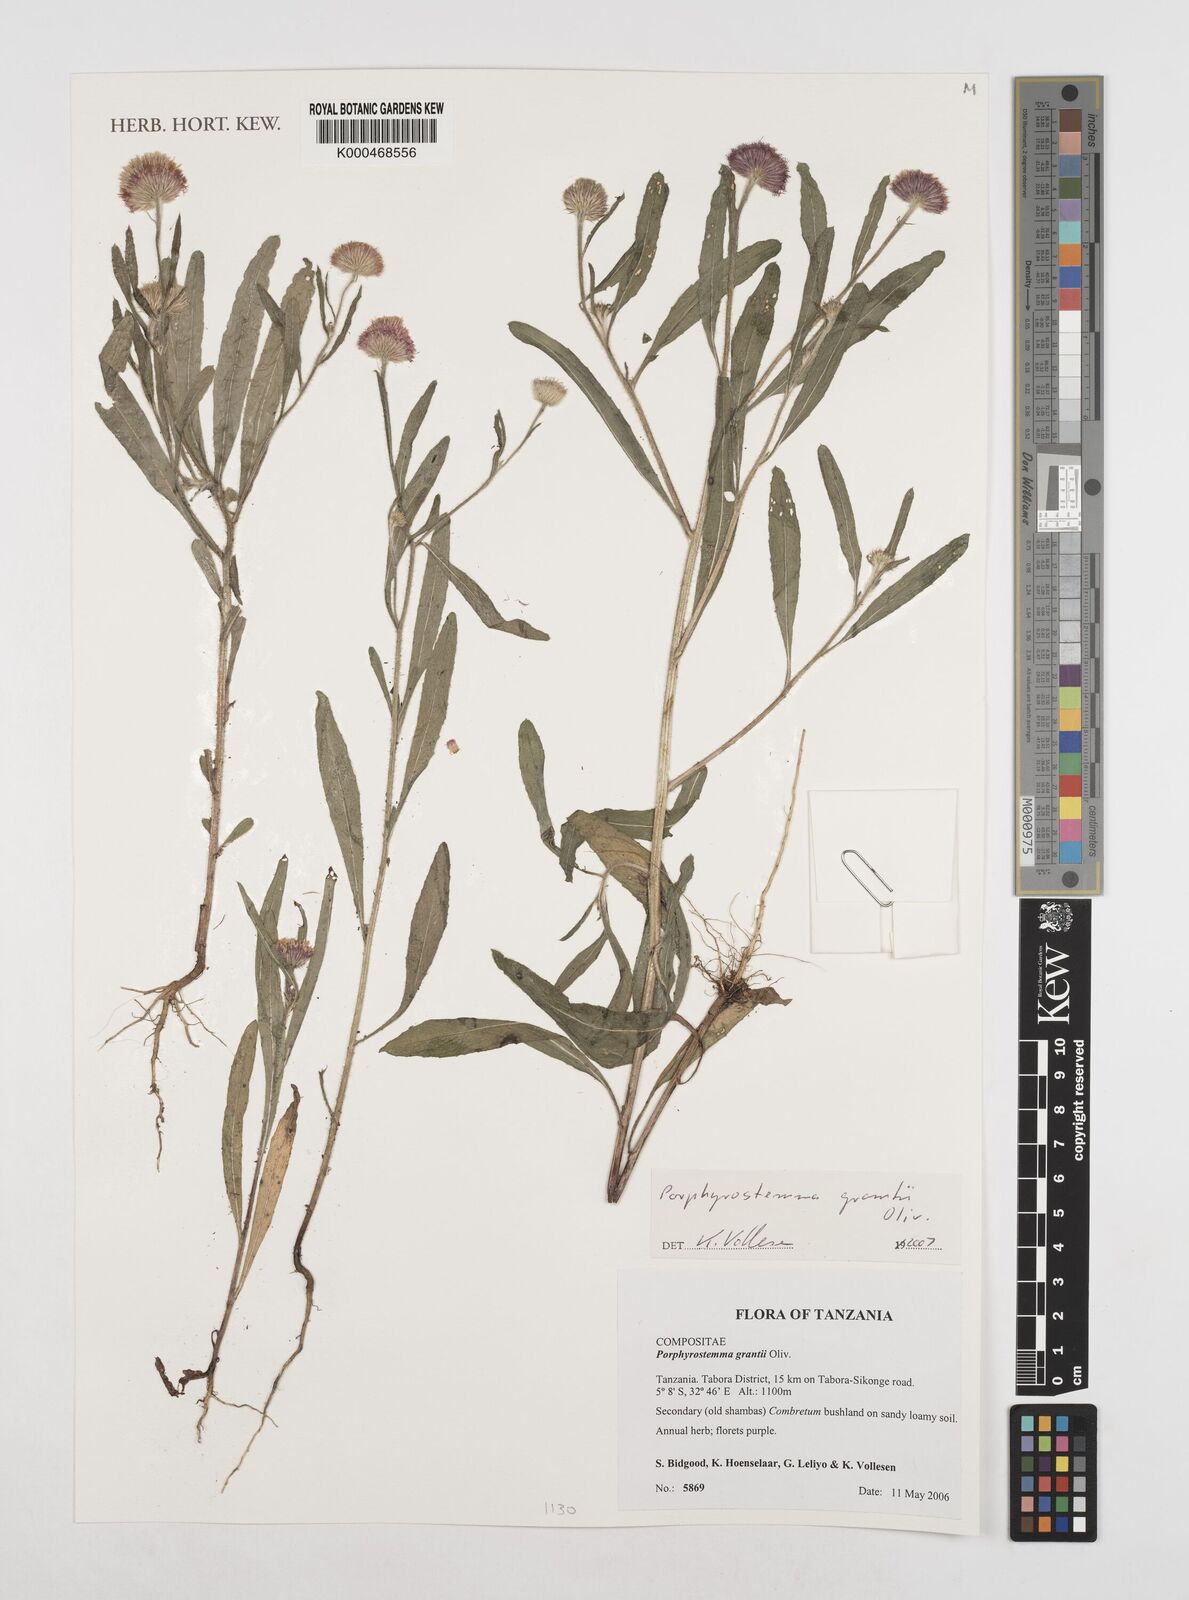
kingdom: Plantae
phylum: Tracheophyta
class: Magnoliopsida
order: Asterales
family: Asteraceae
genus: Porphyrostemma
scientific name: Porphyrostemma grantii
